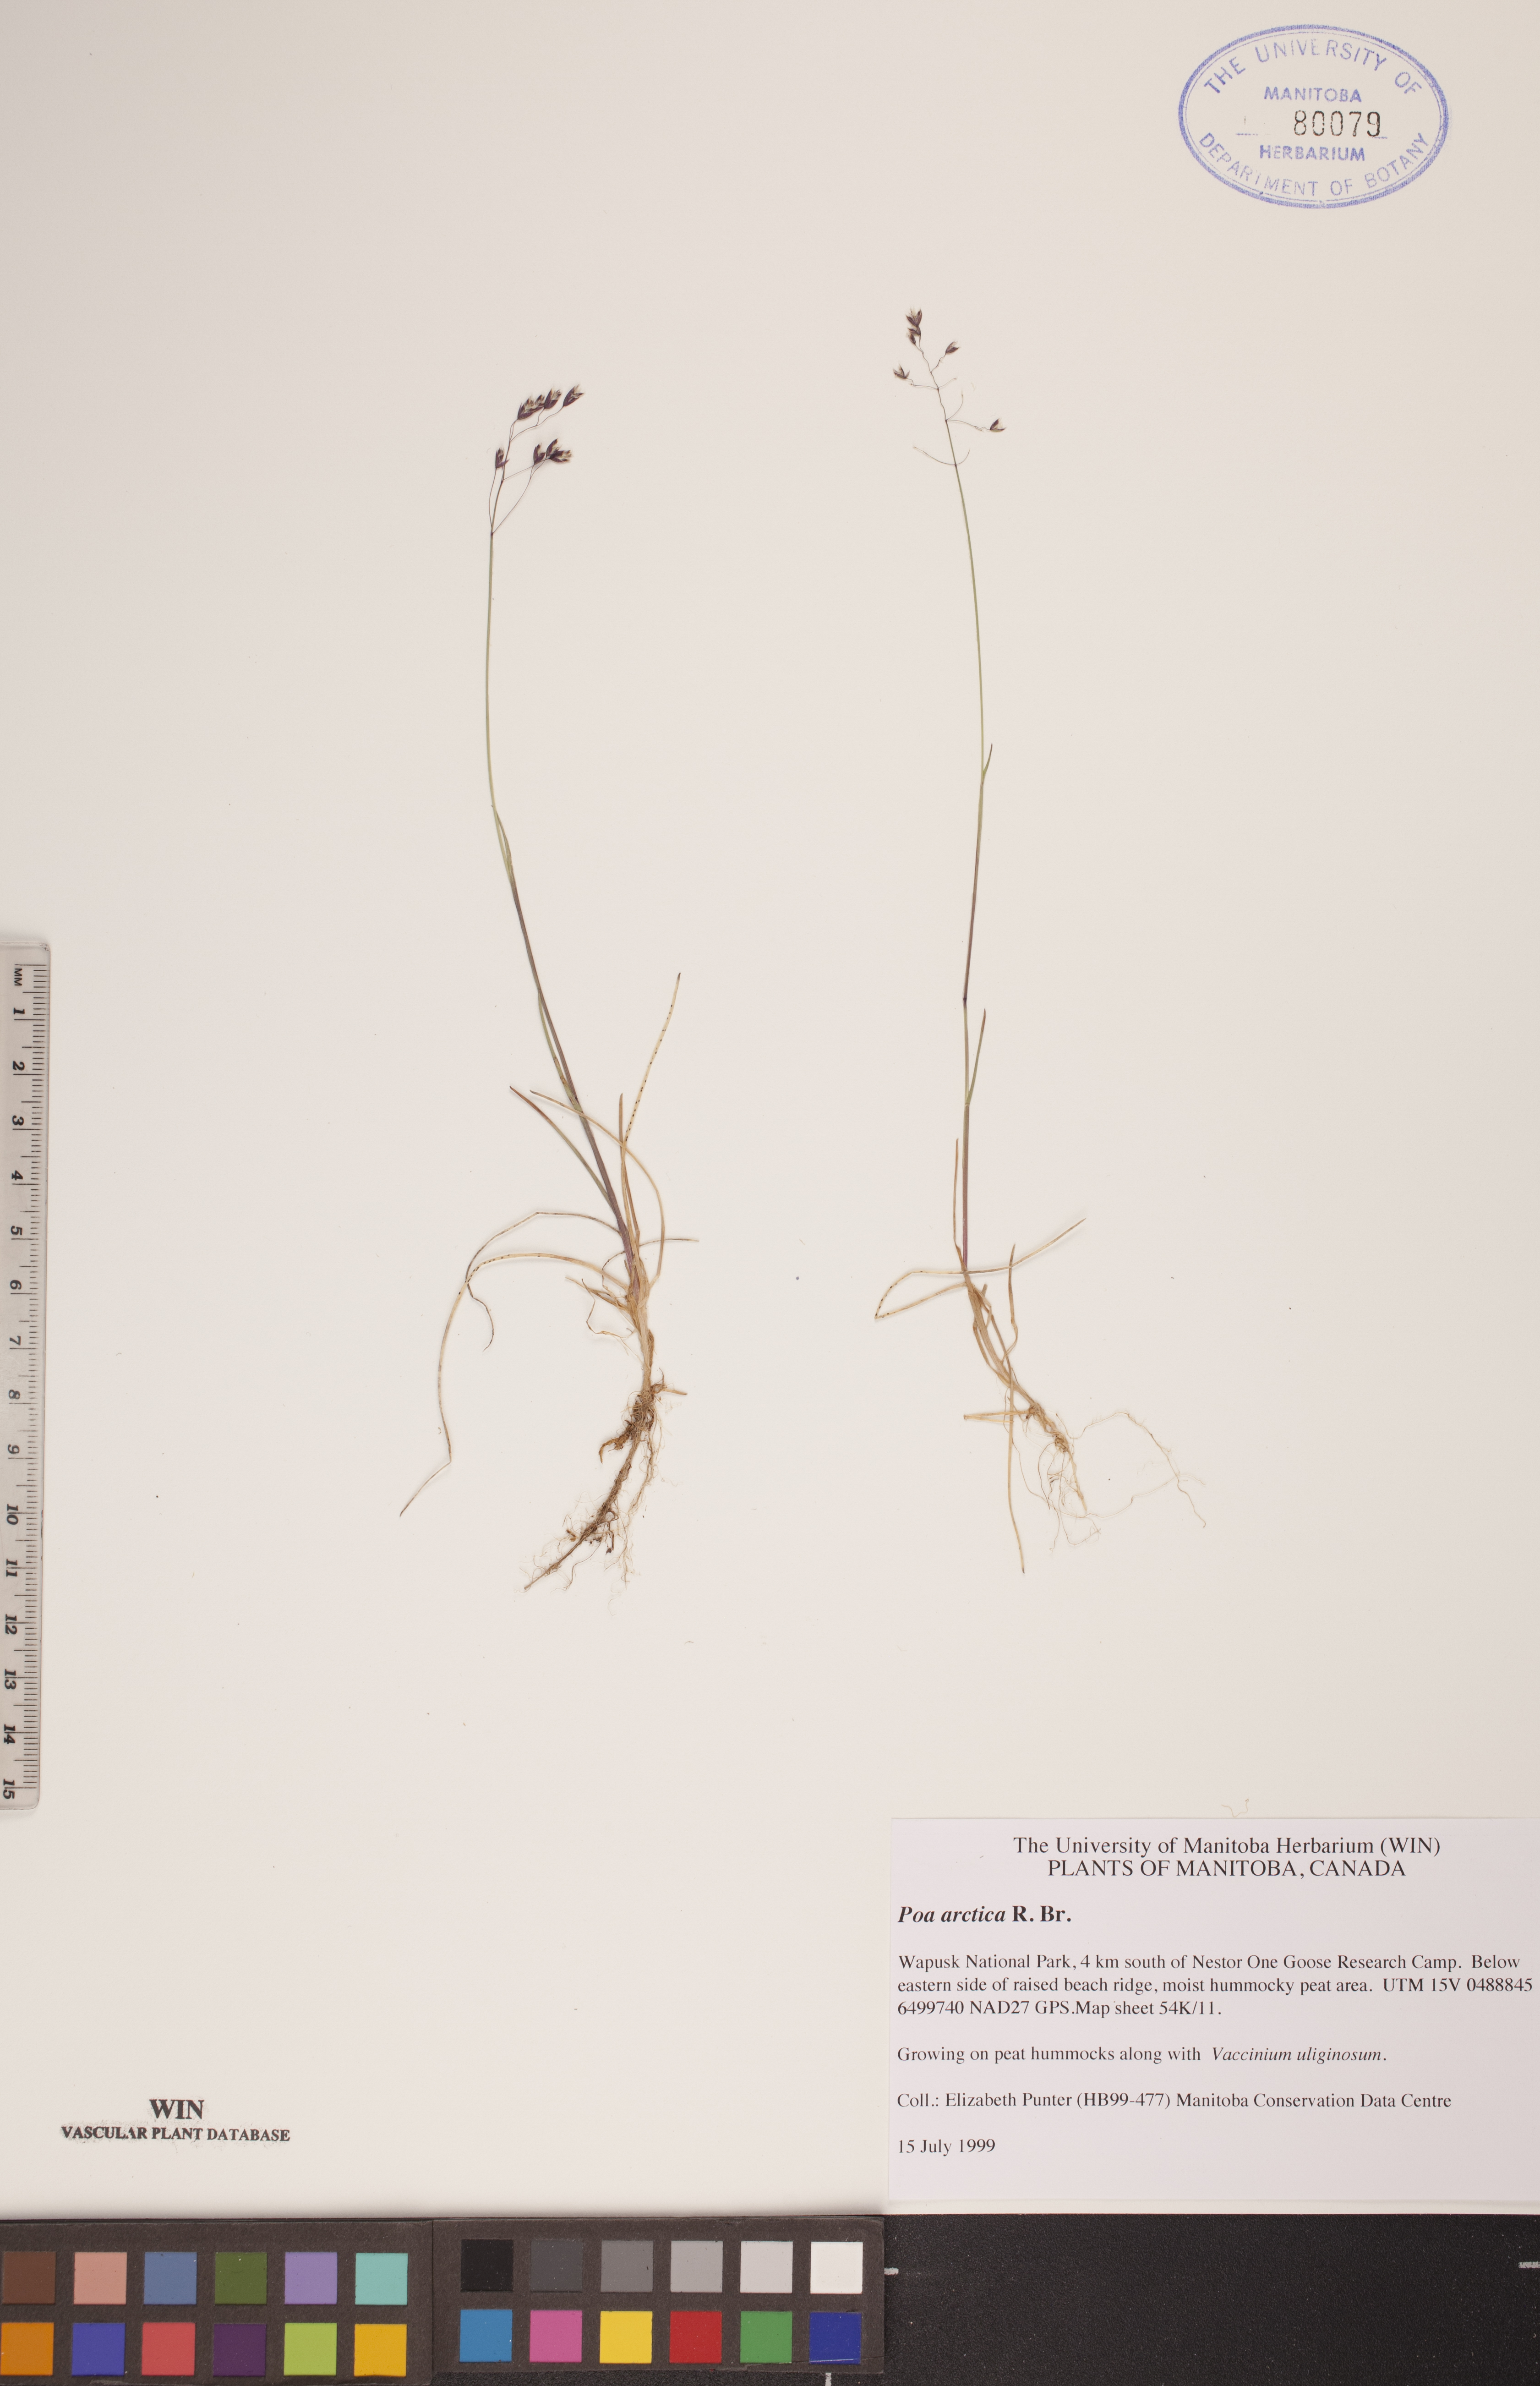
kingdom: Plantae
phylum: Tracheophyta
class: Liliopsida
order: Poales
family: Poaceae
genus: Poa
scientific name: Poa arctica
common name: Arctic bluegrass
